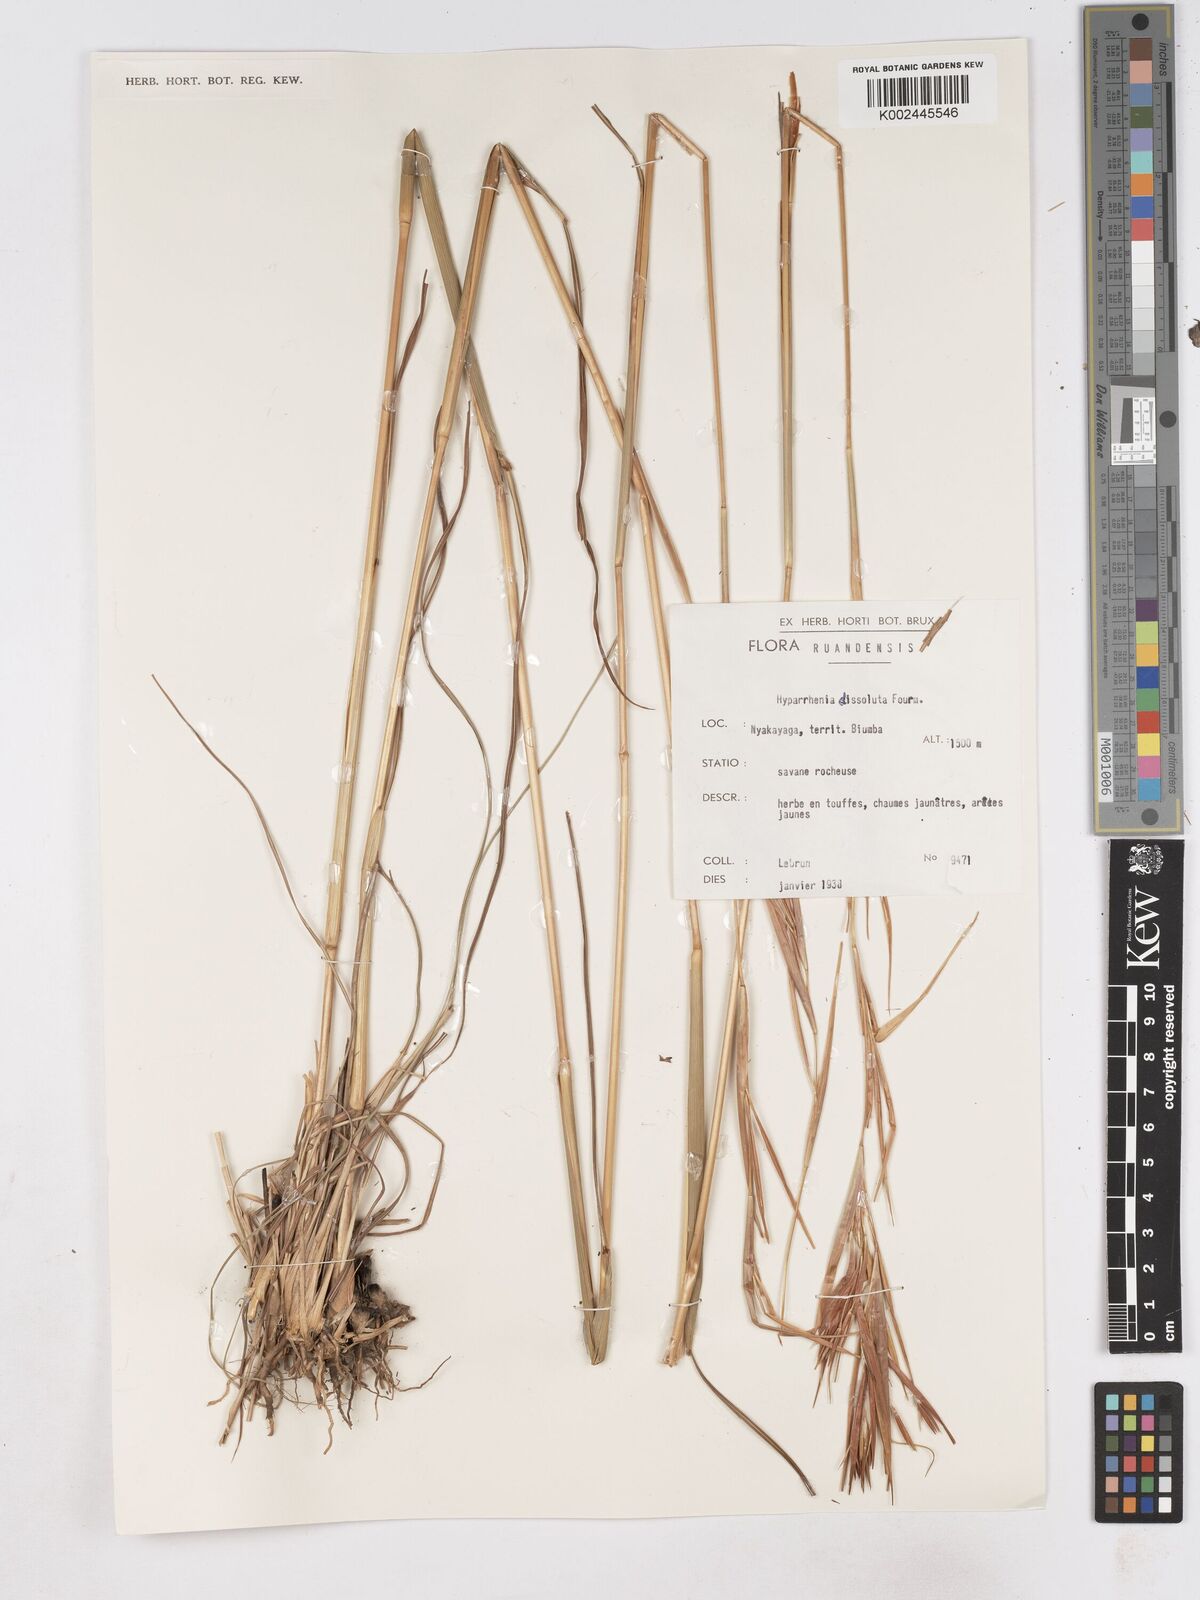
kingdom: Plantae
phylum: Tracheophyta
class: Liliopsida
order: Poales
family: Poaceae
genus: Hyperthelia
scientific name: Hyperthelia dissoluta
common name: Yellow thatching grass
